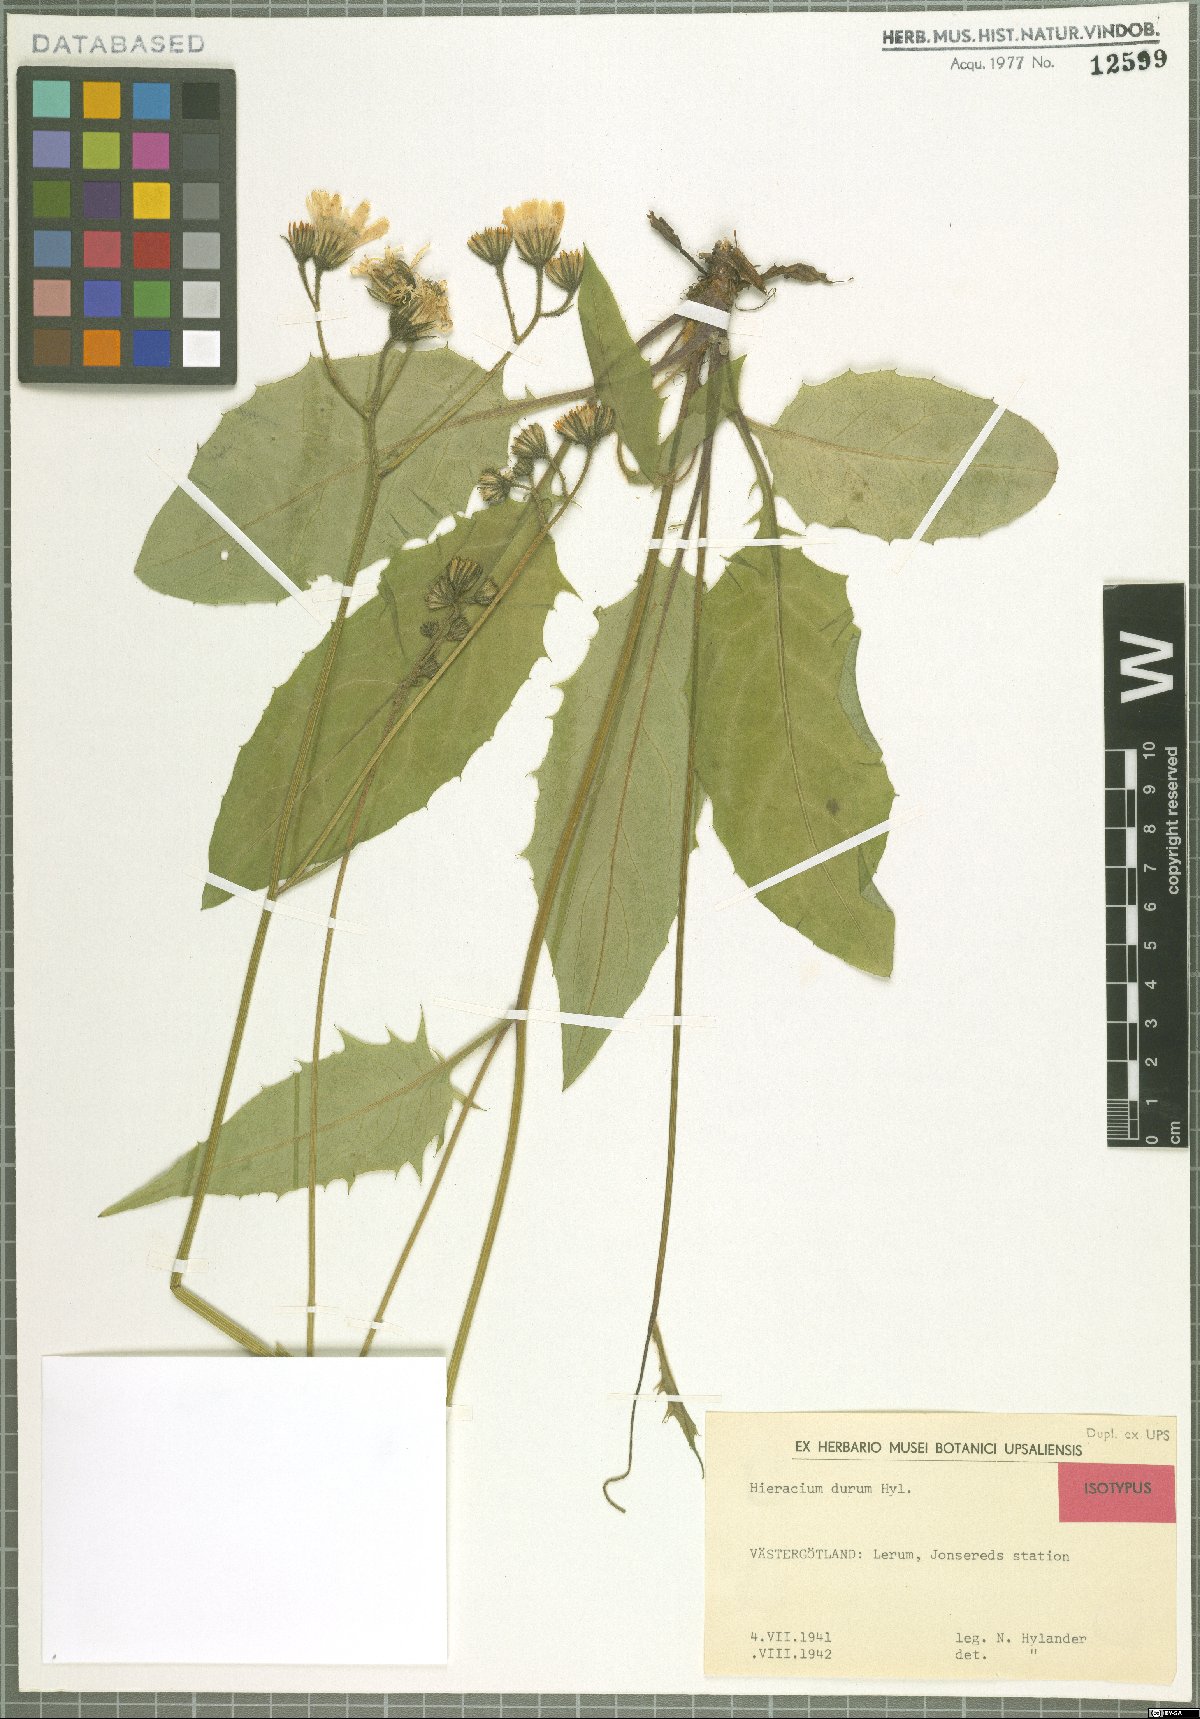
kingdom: Plantae
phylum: Tracheophyta
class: Magnoliopsida
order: Asterales
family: Asteraceae
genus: Hieracium
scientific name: Hieracium durum
